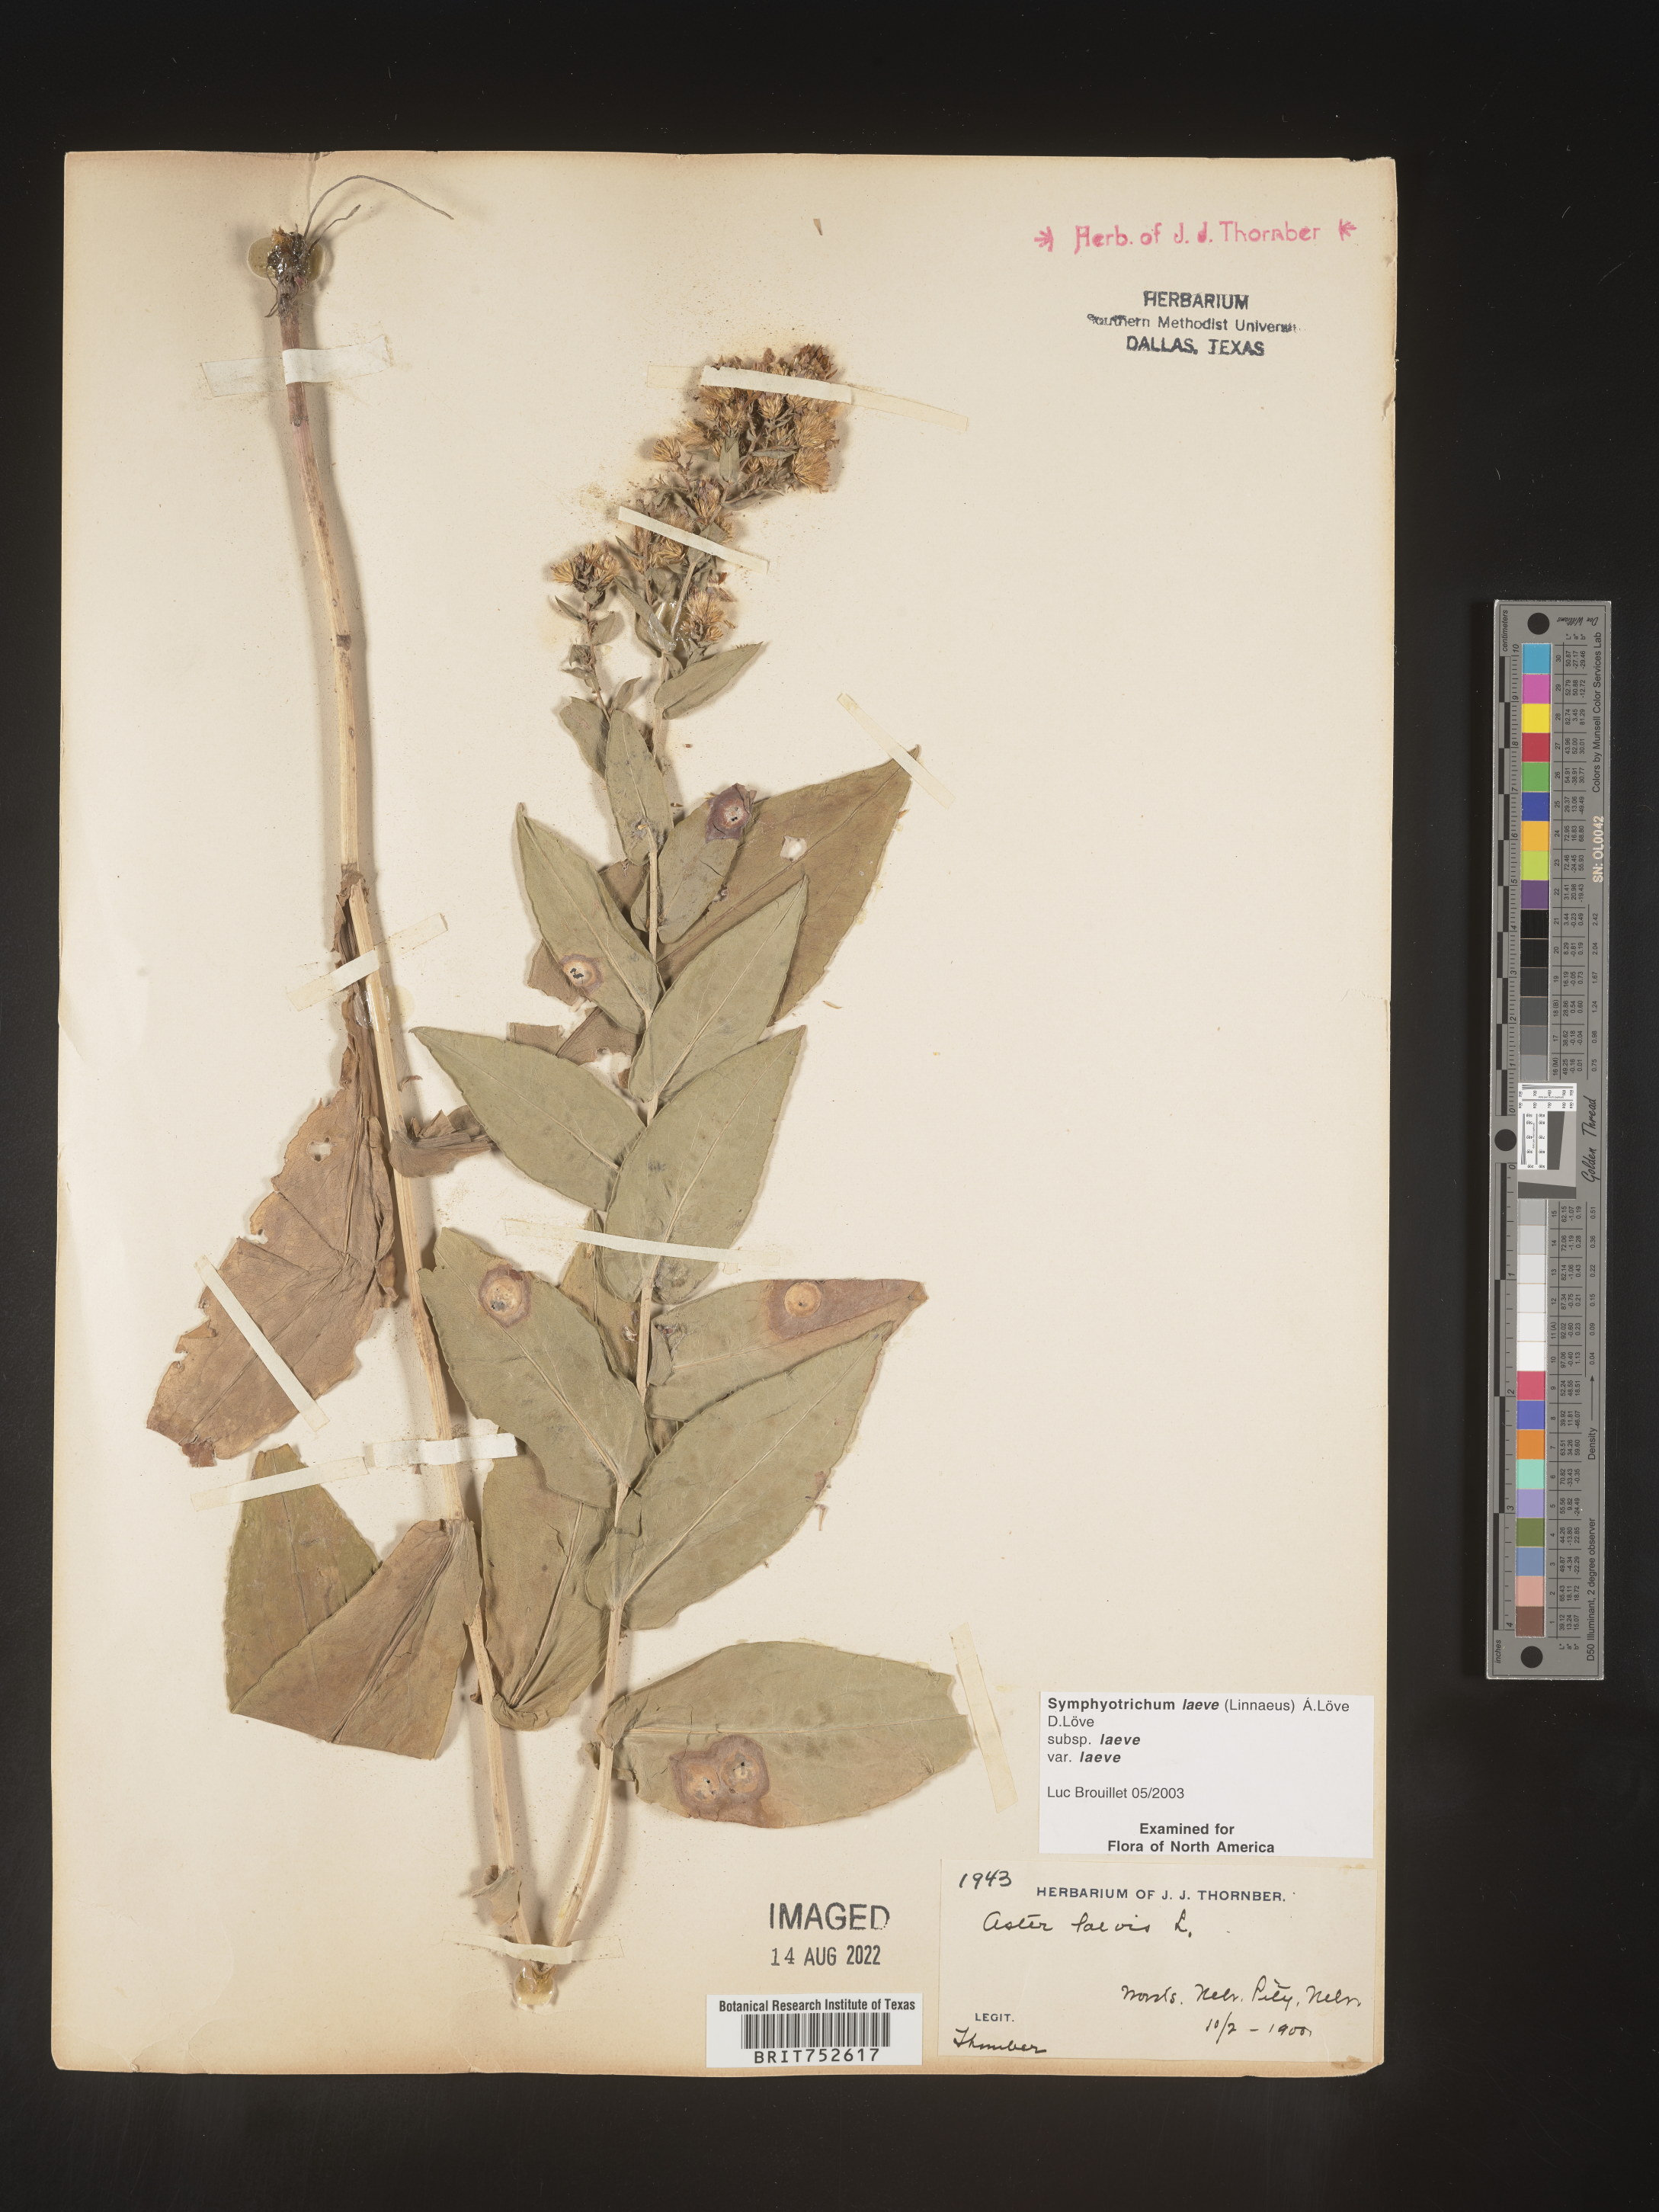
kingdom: Plantae
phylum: Tracheophyta
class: Magnoliopsida
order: Asterales
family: Asteraceae
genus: Symphyotrichum
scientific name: Symphyotrichum laeve
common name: Glaucous aster
